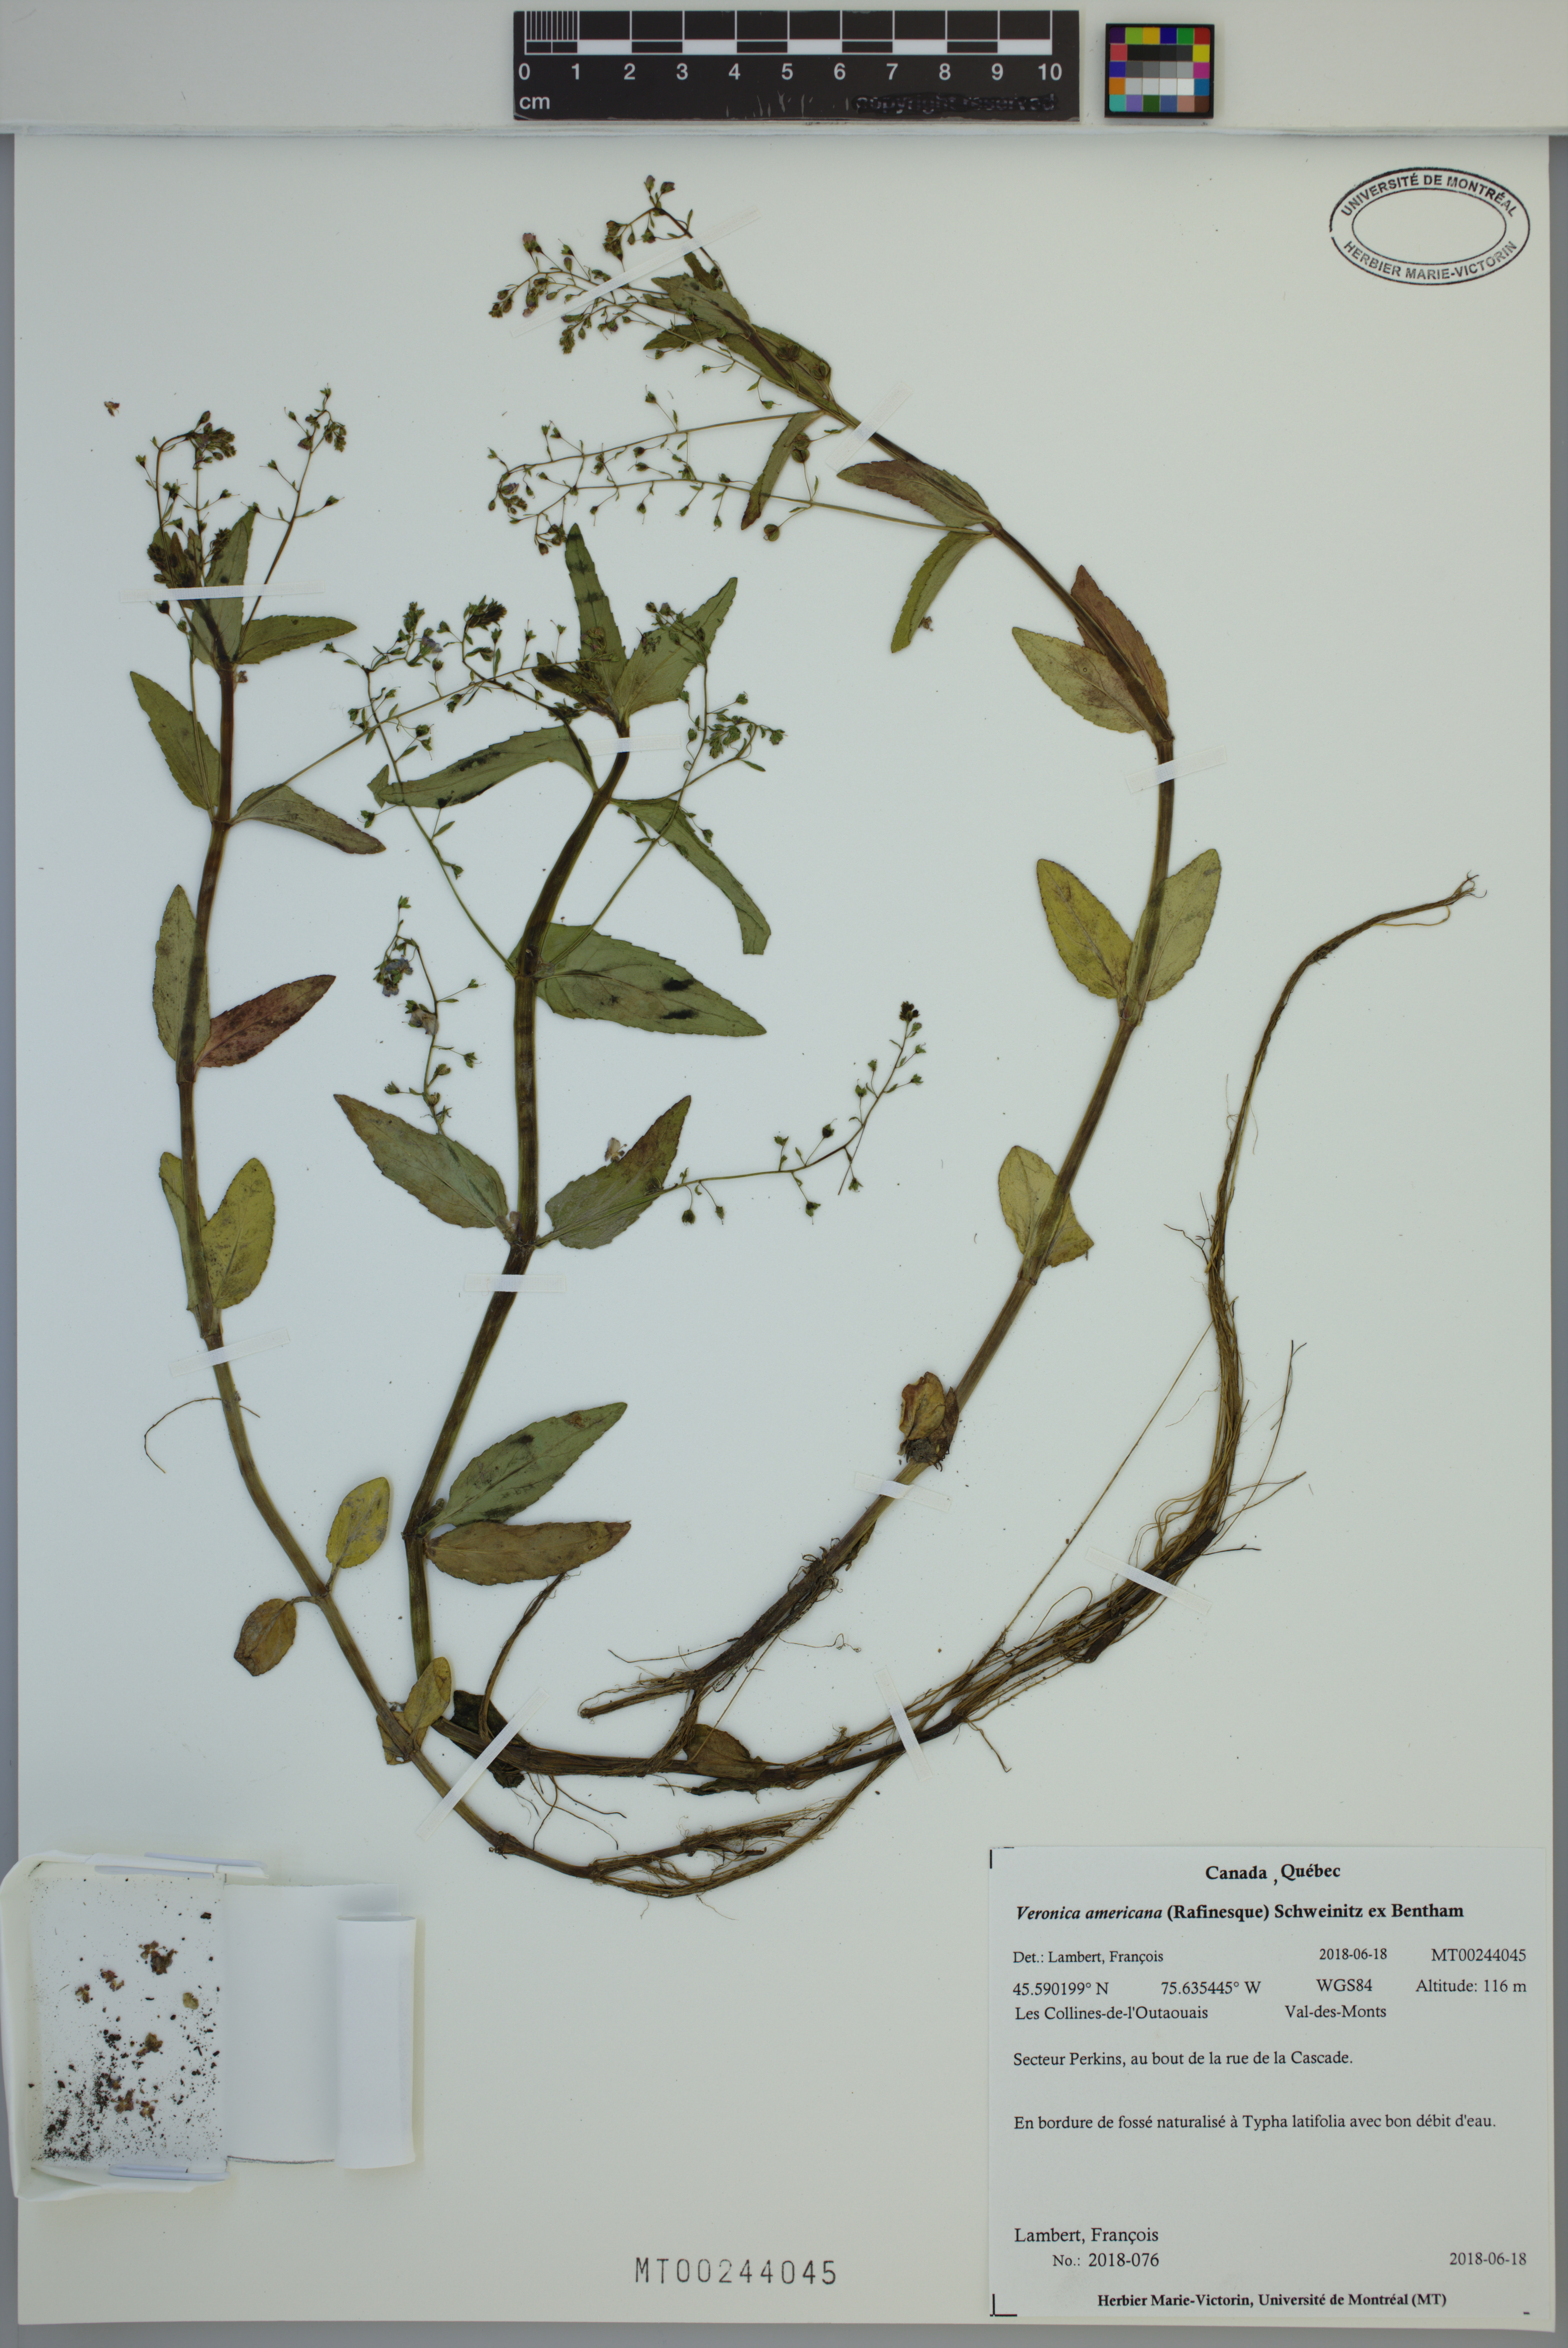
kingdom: Plantae
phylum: Tracheophyta
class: Magnoliopsida
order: Lamiales
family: Plantaginaceae
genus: Veronica
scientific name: Veronica americana
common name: American brooklime
